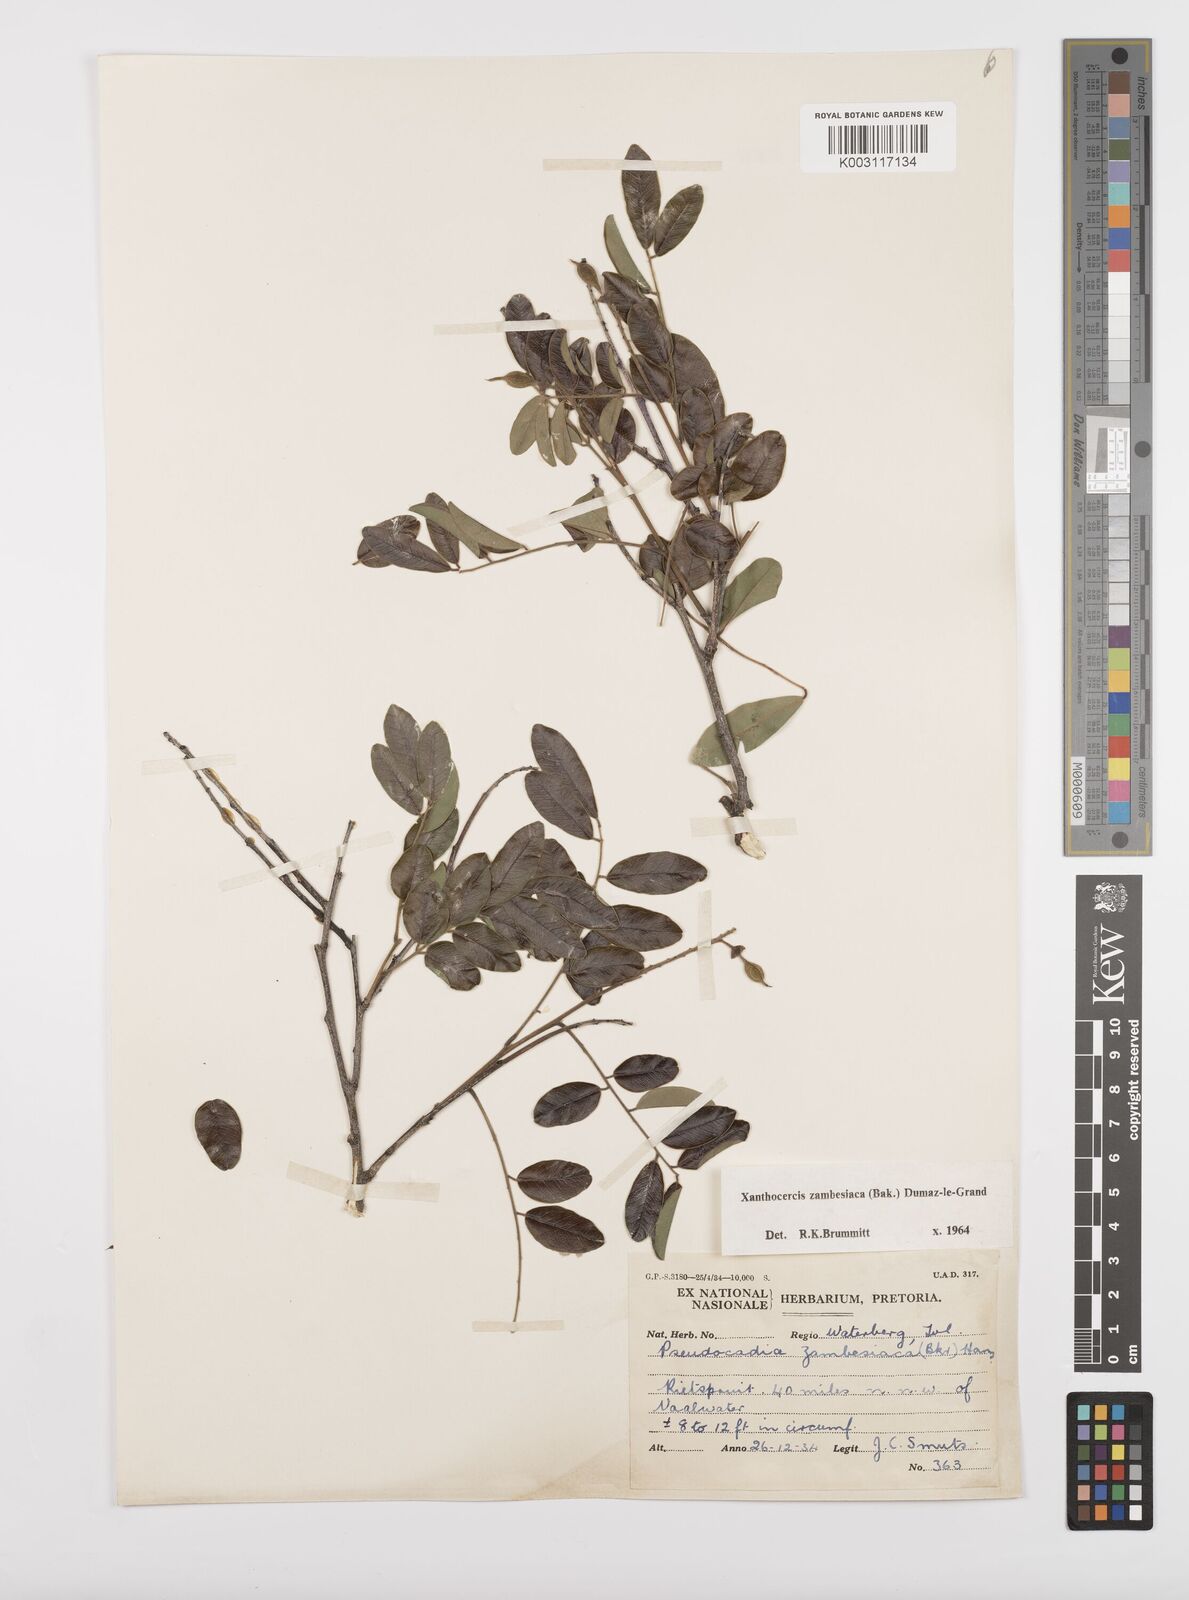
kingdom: Plantae
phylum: Tracheophyta
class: Magnoliopsida
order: Fabales
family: Fabaceae
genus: Xanthocercis
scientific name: Xanthocercis zambesiaca
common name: Nyala-tree
